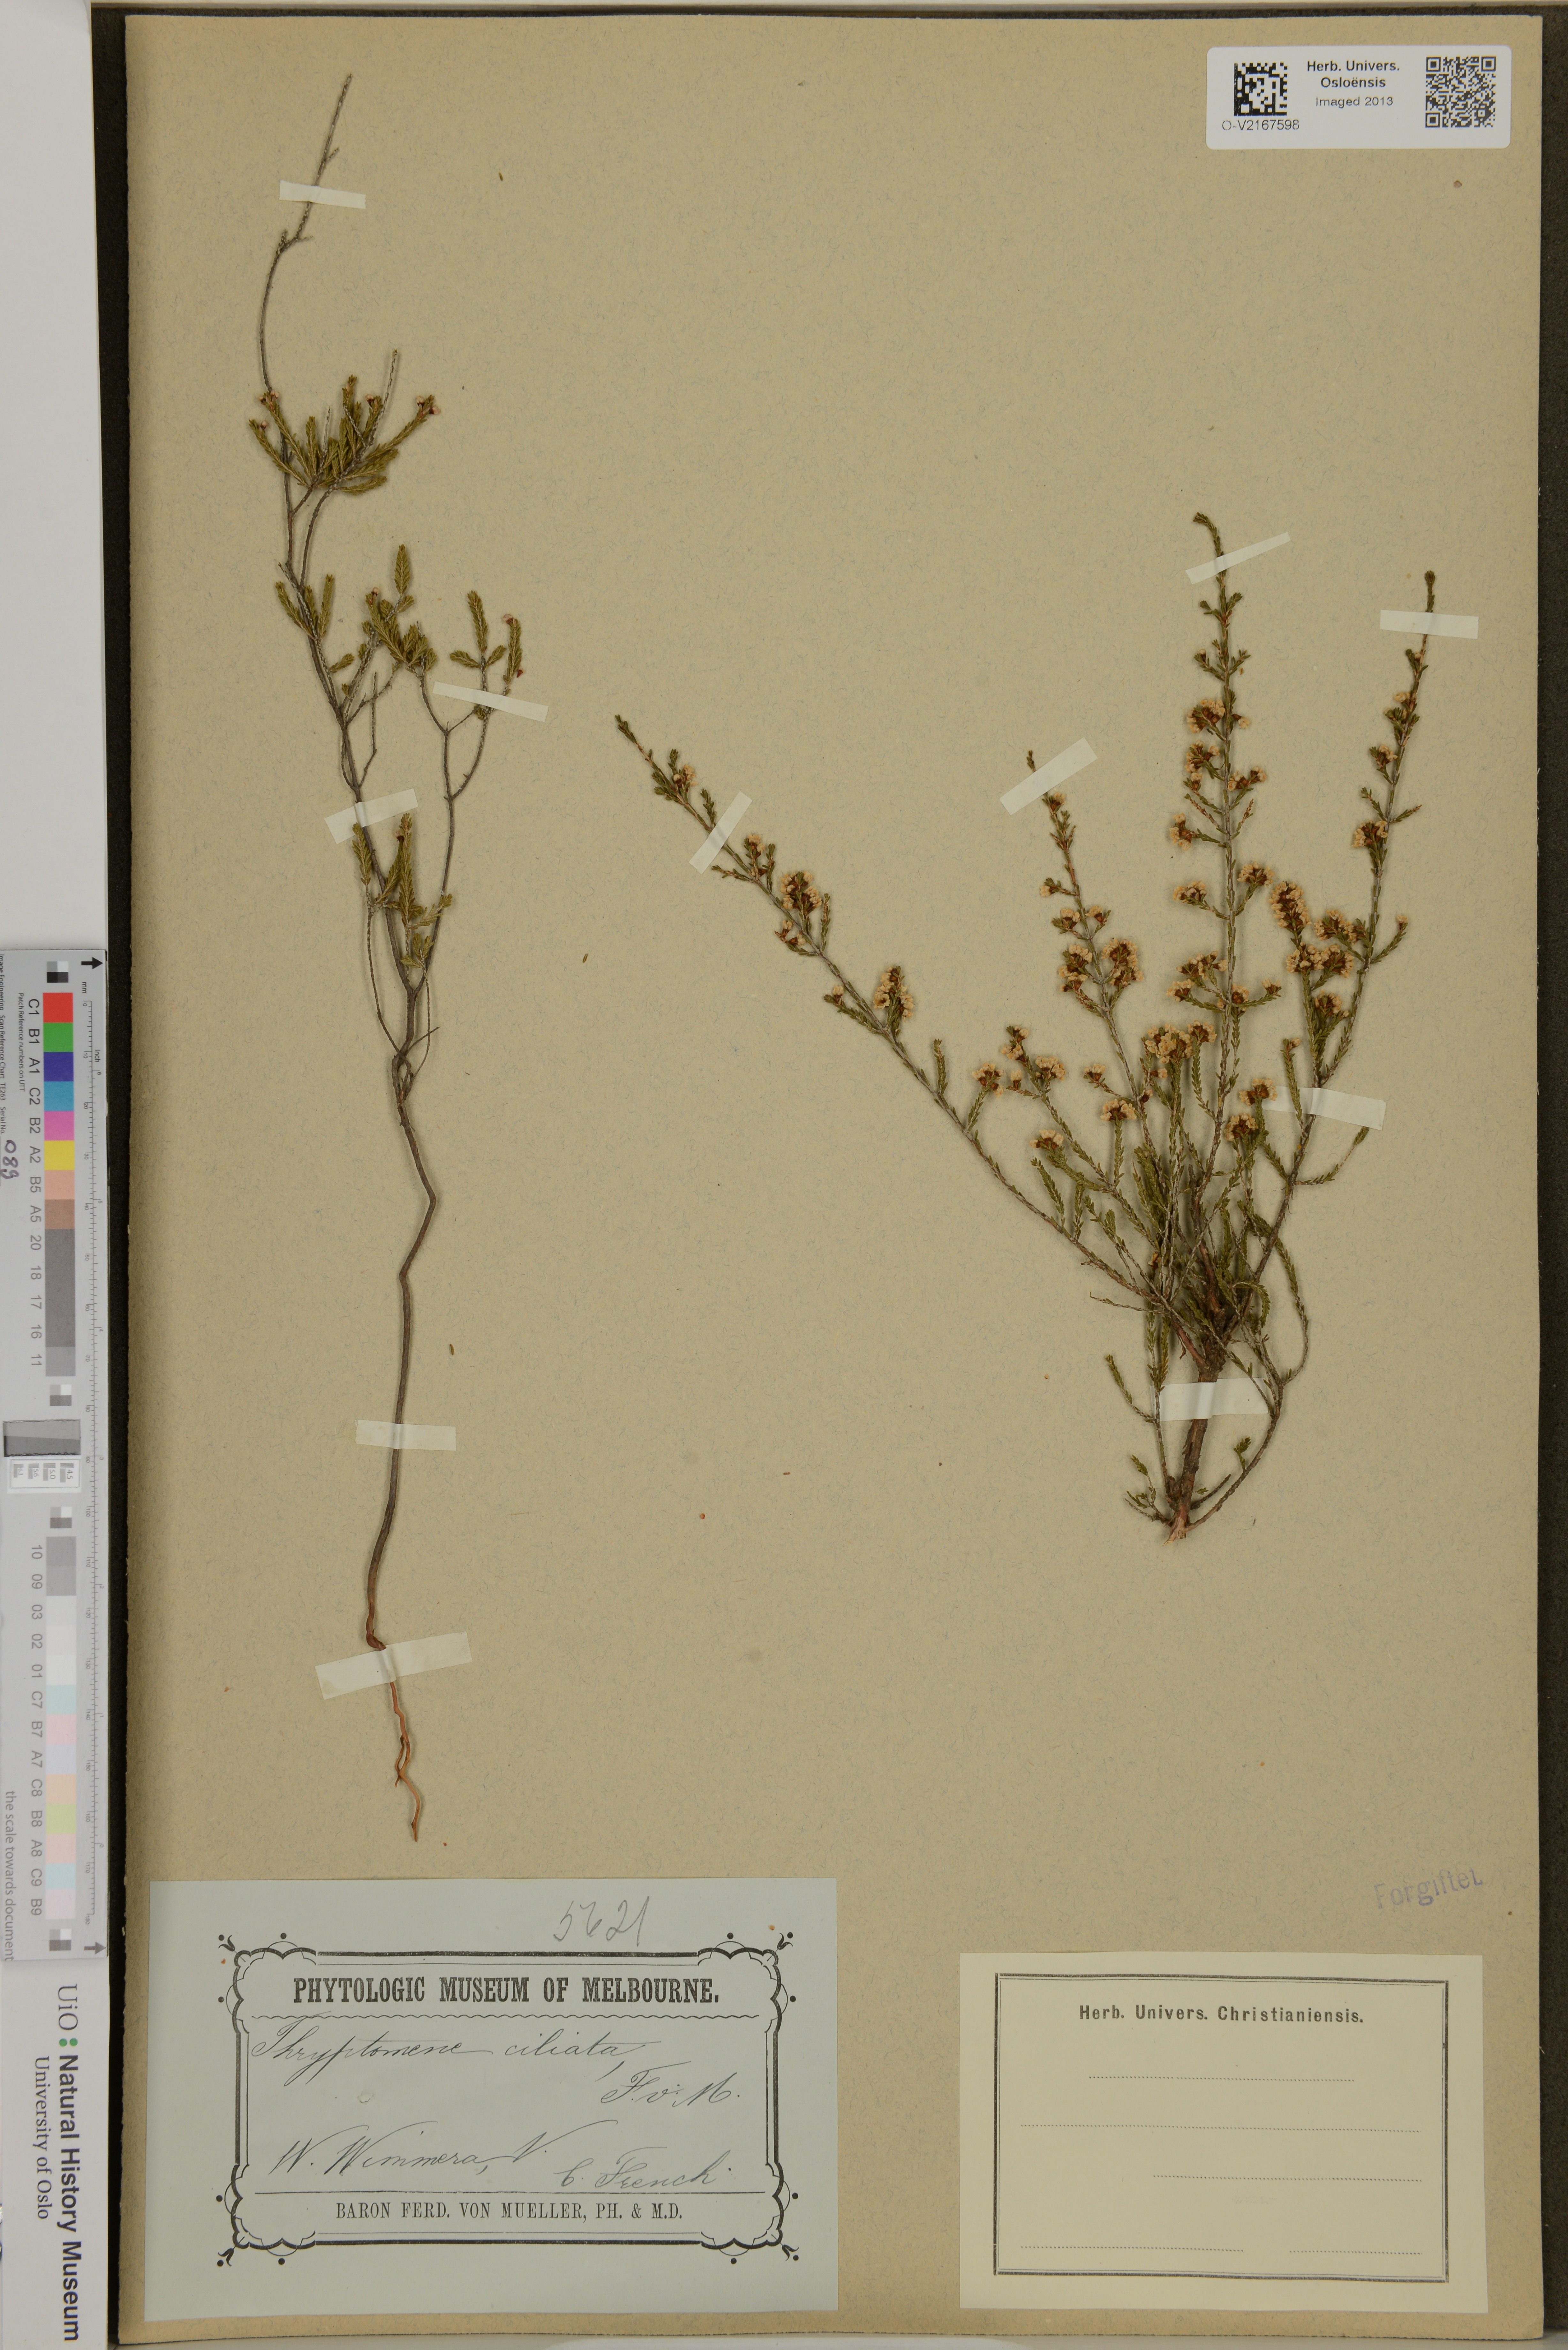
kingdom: Plantae
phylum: Tracheophyta
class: Magnoliopsida
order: Myrtales
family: Myrtaceae
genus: Thryptomene
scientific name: Thryptomene ciliata
